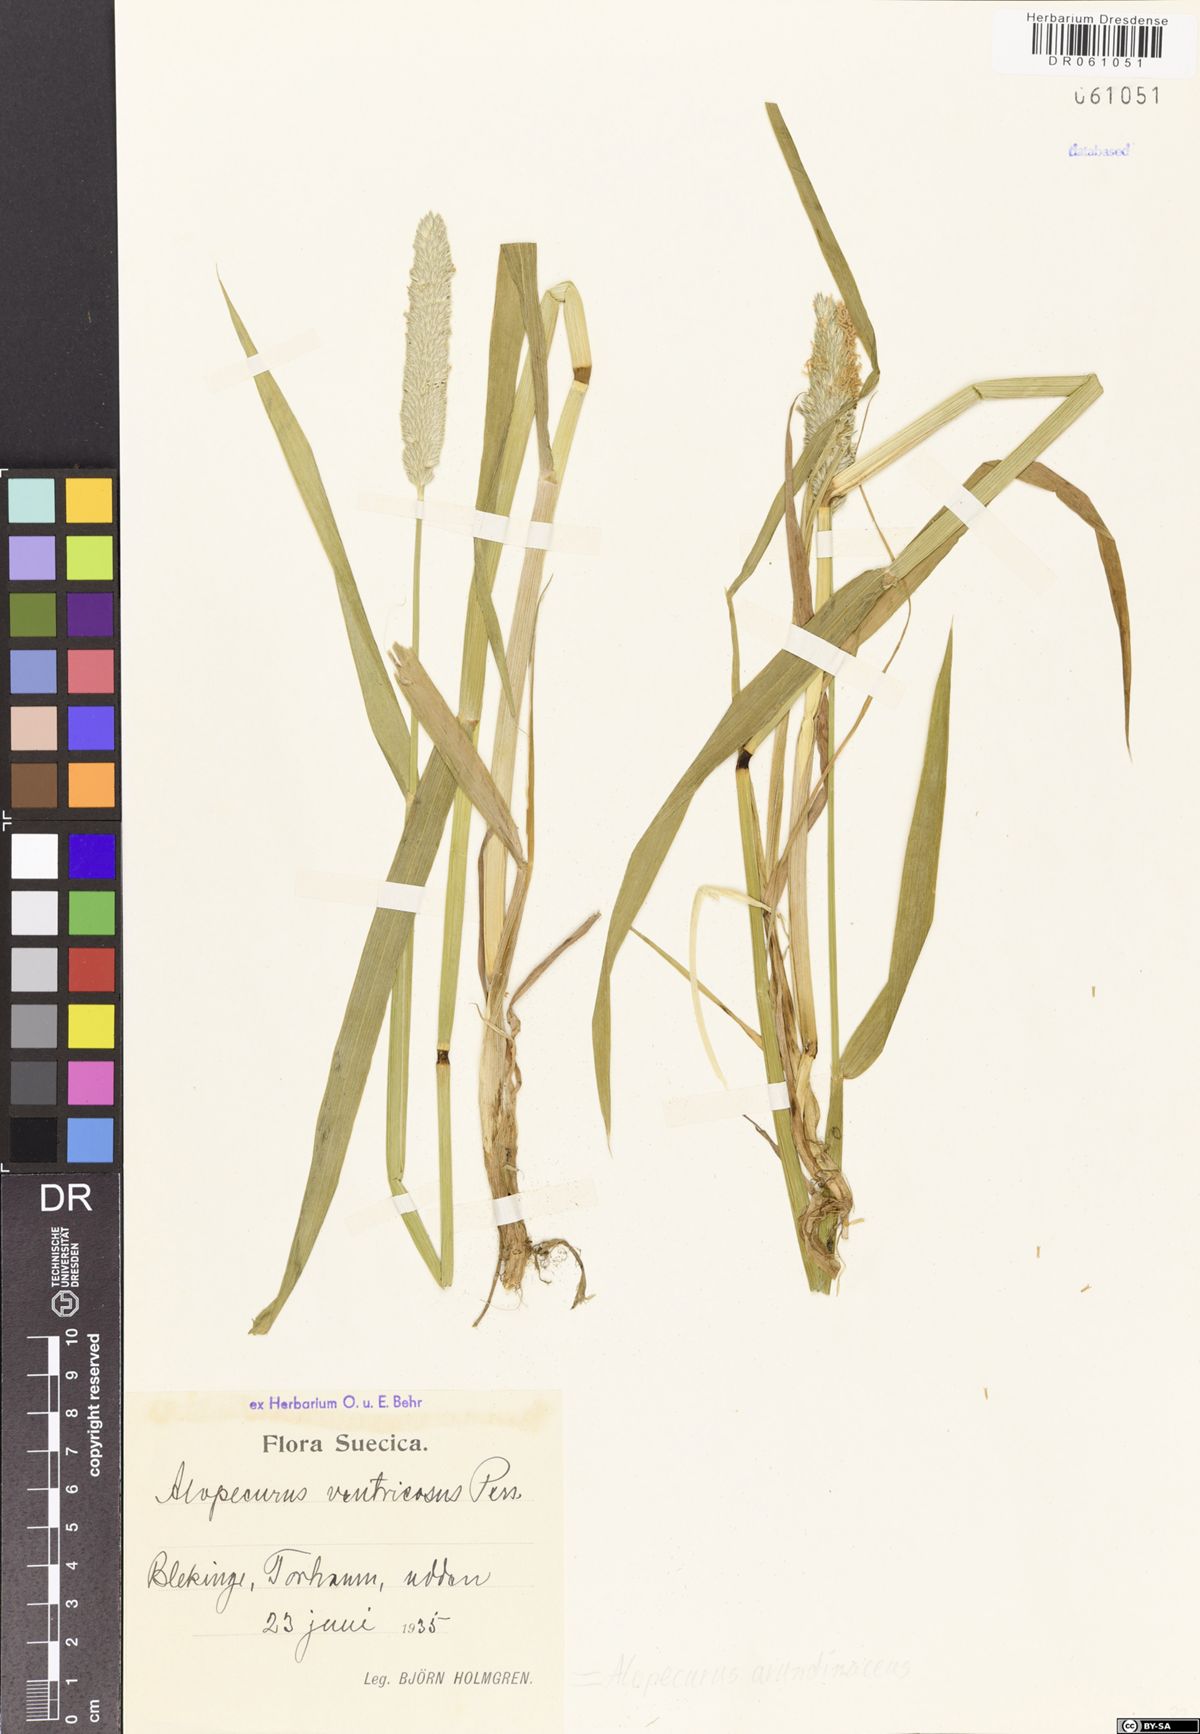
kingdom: Plantae
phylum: Tracheophyta
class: Liliopsida
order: Poales
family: Poaceae
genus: Alopecurus
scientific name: Alopecurus arundinaceus
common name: Creeping meadow foxtail
